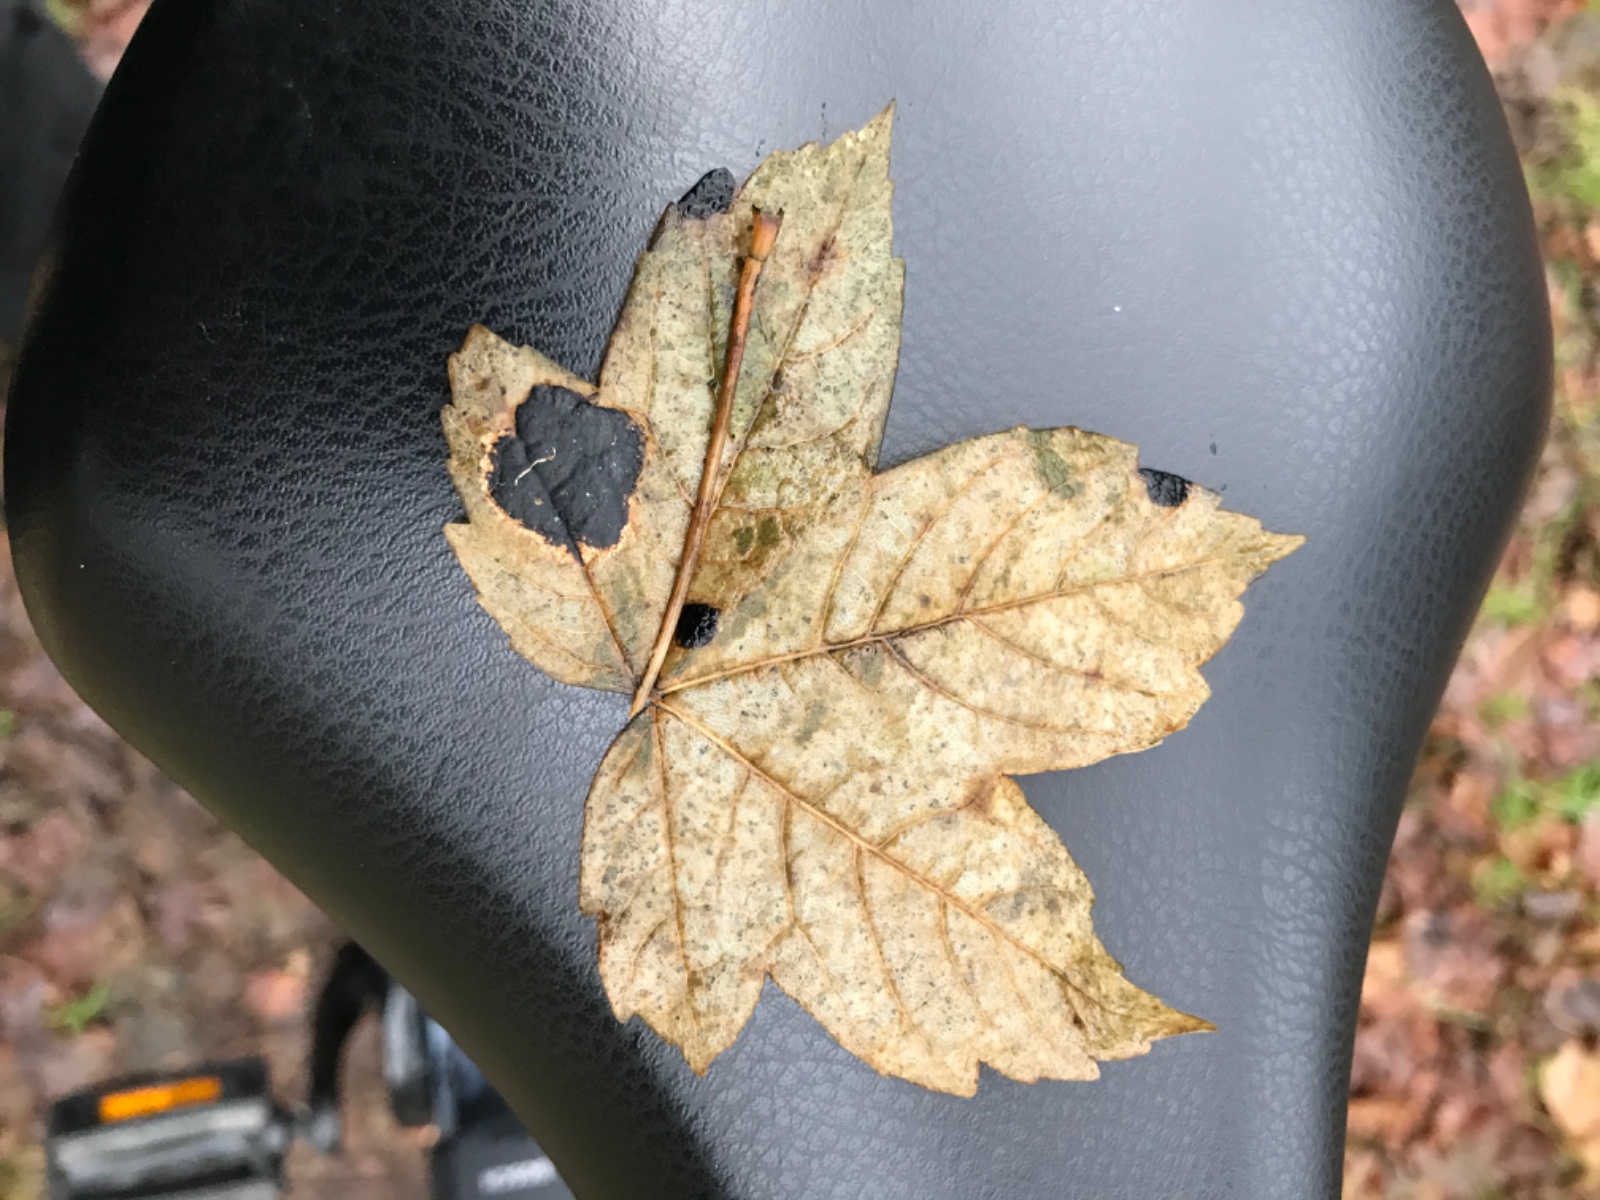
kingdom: Fungi
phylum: Ascomycota
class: Leotiomycetes
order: Rhytismatales
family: Rhytismataceae
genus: Rhytisma
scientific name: Rhytisma acerinum
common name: ahorn-rynkeplet
